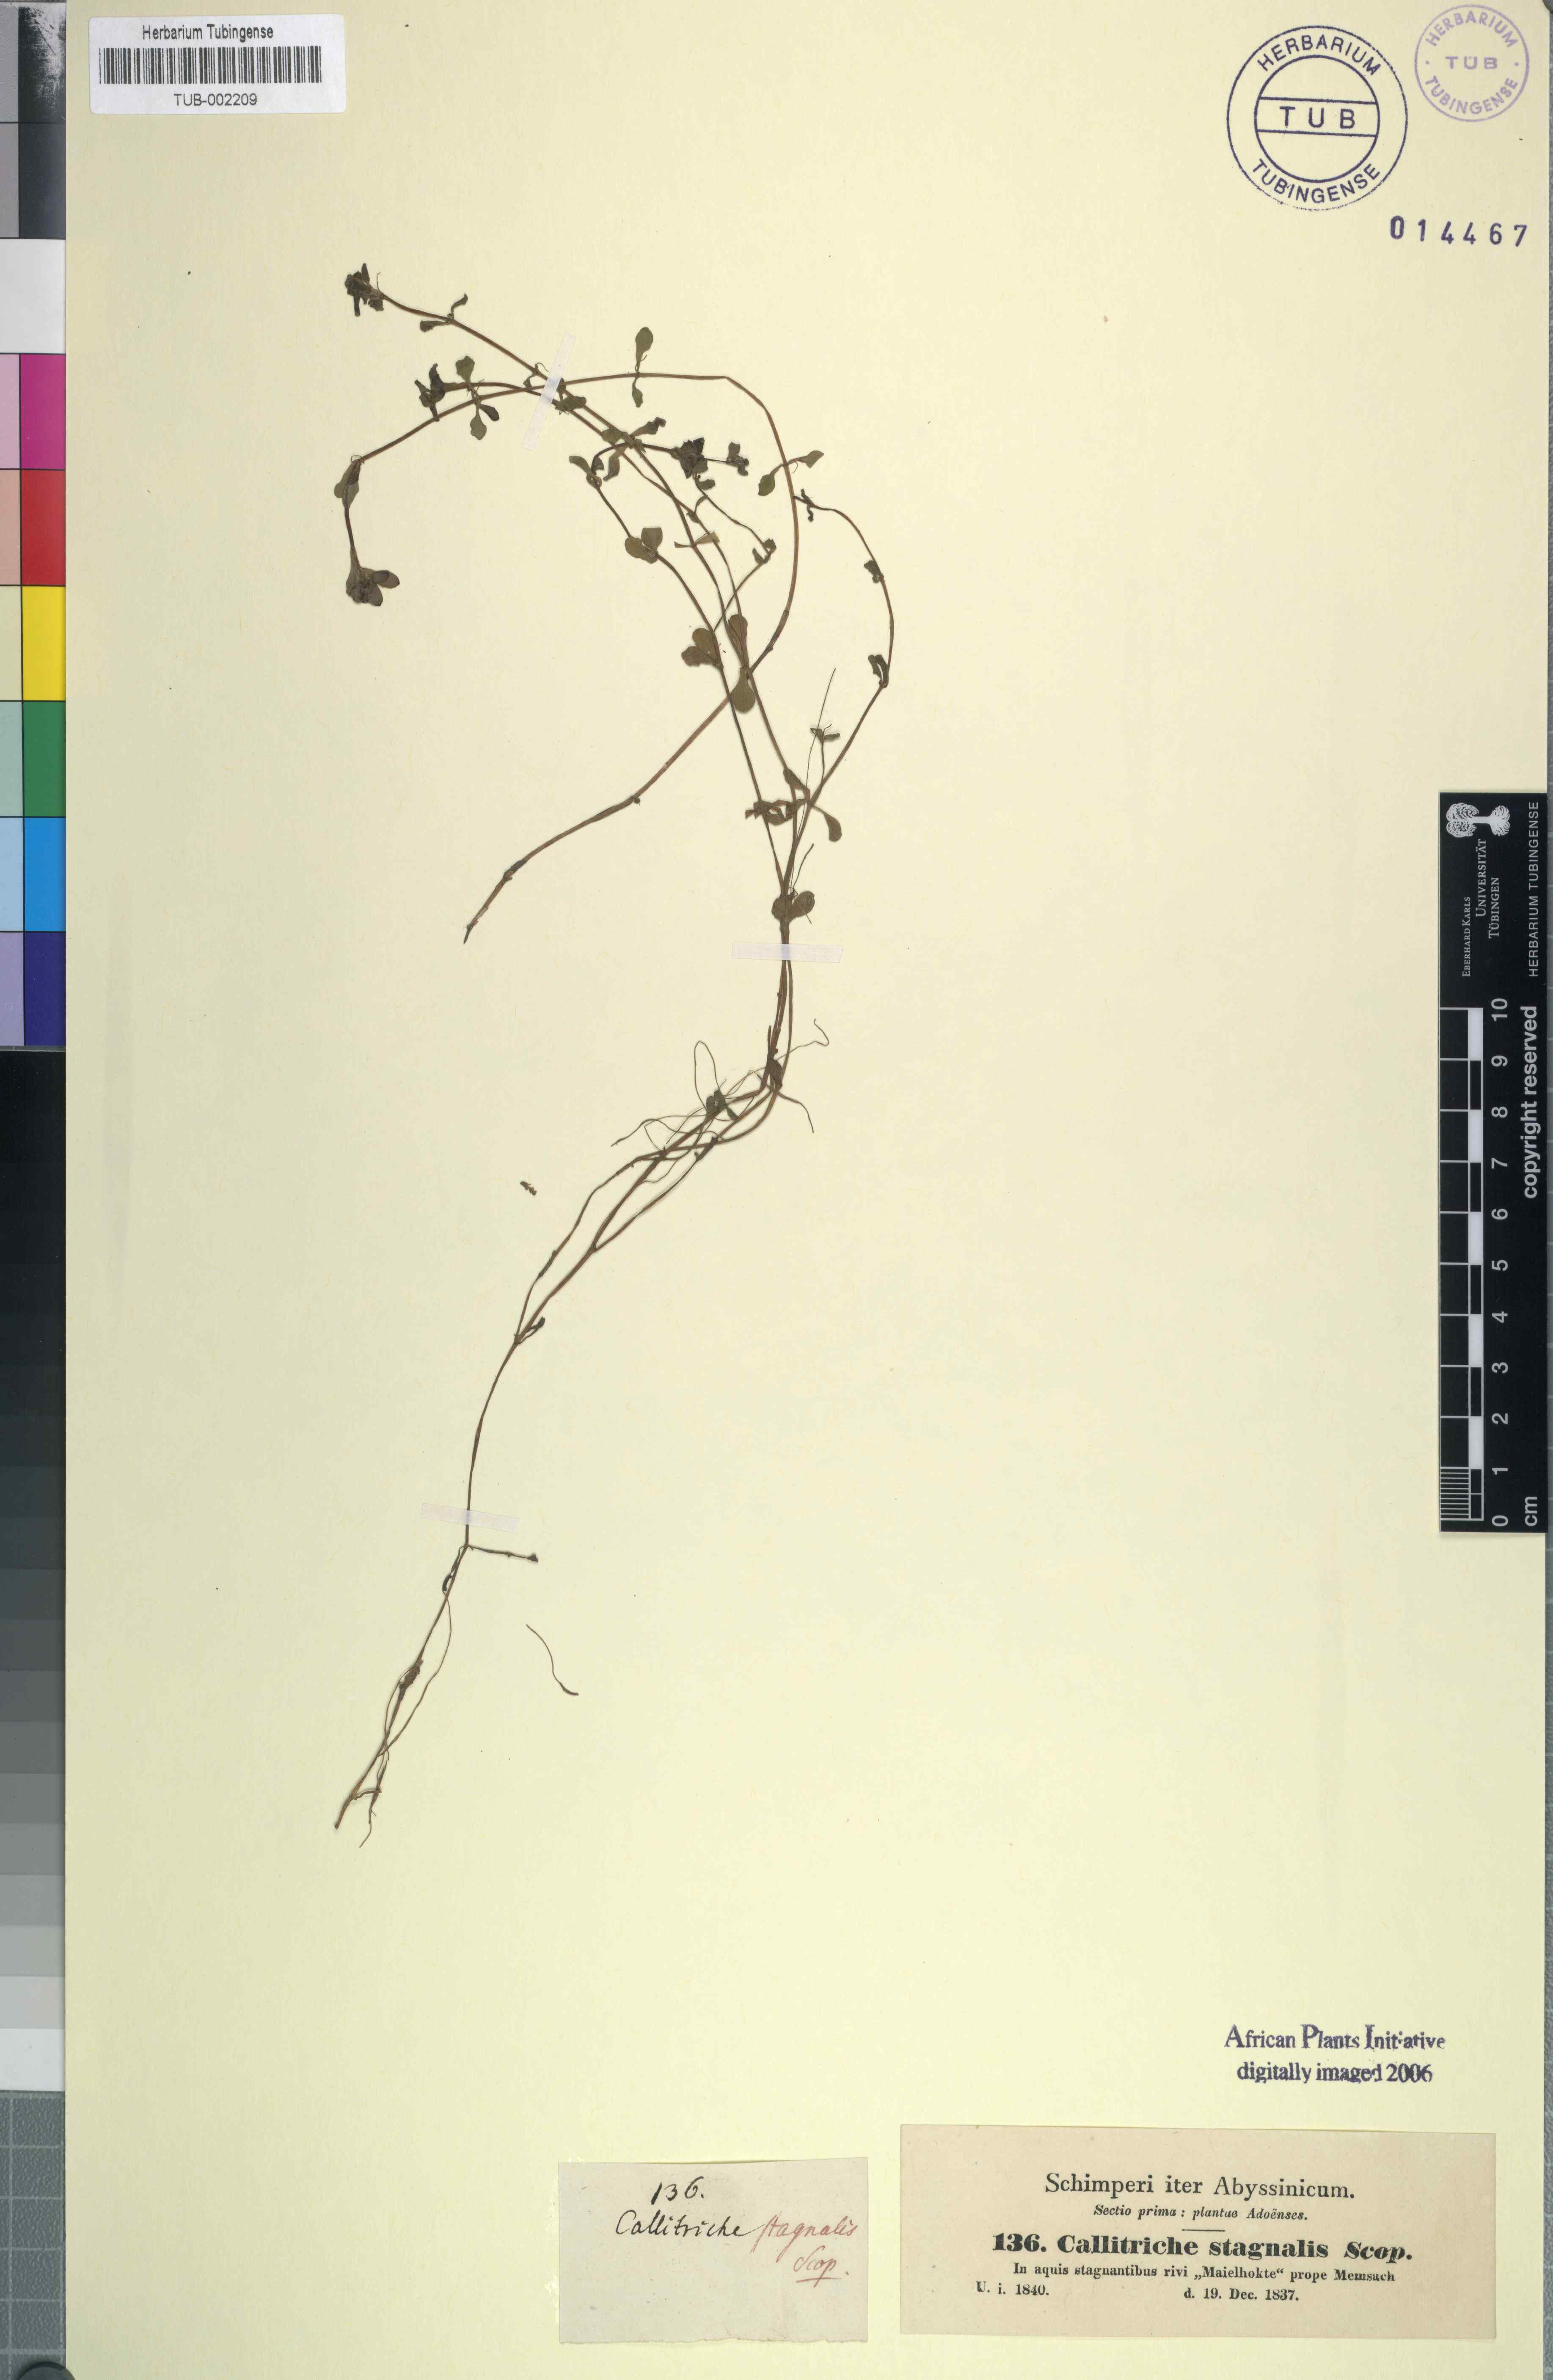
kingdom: Plantae
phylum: Tracheophyta
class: Magnoliopsida
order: Lamiales
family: Plantaginaceae
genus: Callitriche
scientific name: Callitriche stagnalis
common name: Common water-starwort
